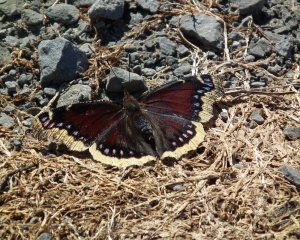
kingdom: Animalia
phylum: Arthropoda
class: Insecta
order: Lepidoptera
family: Nymphalidae
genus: Nymphalis
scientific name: Nymphalis antiopa
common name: Mourning Cloak
